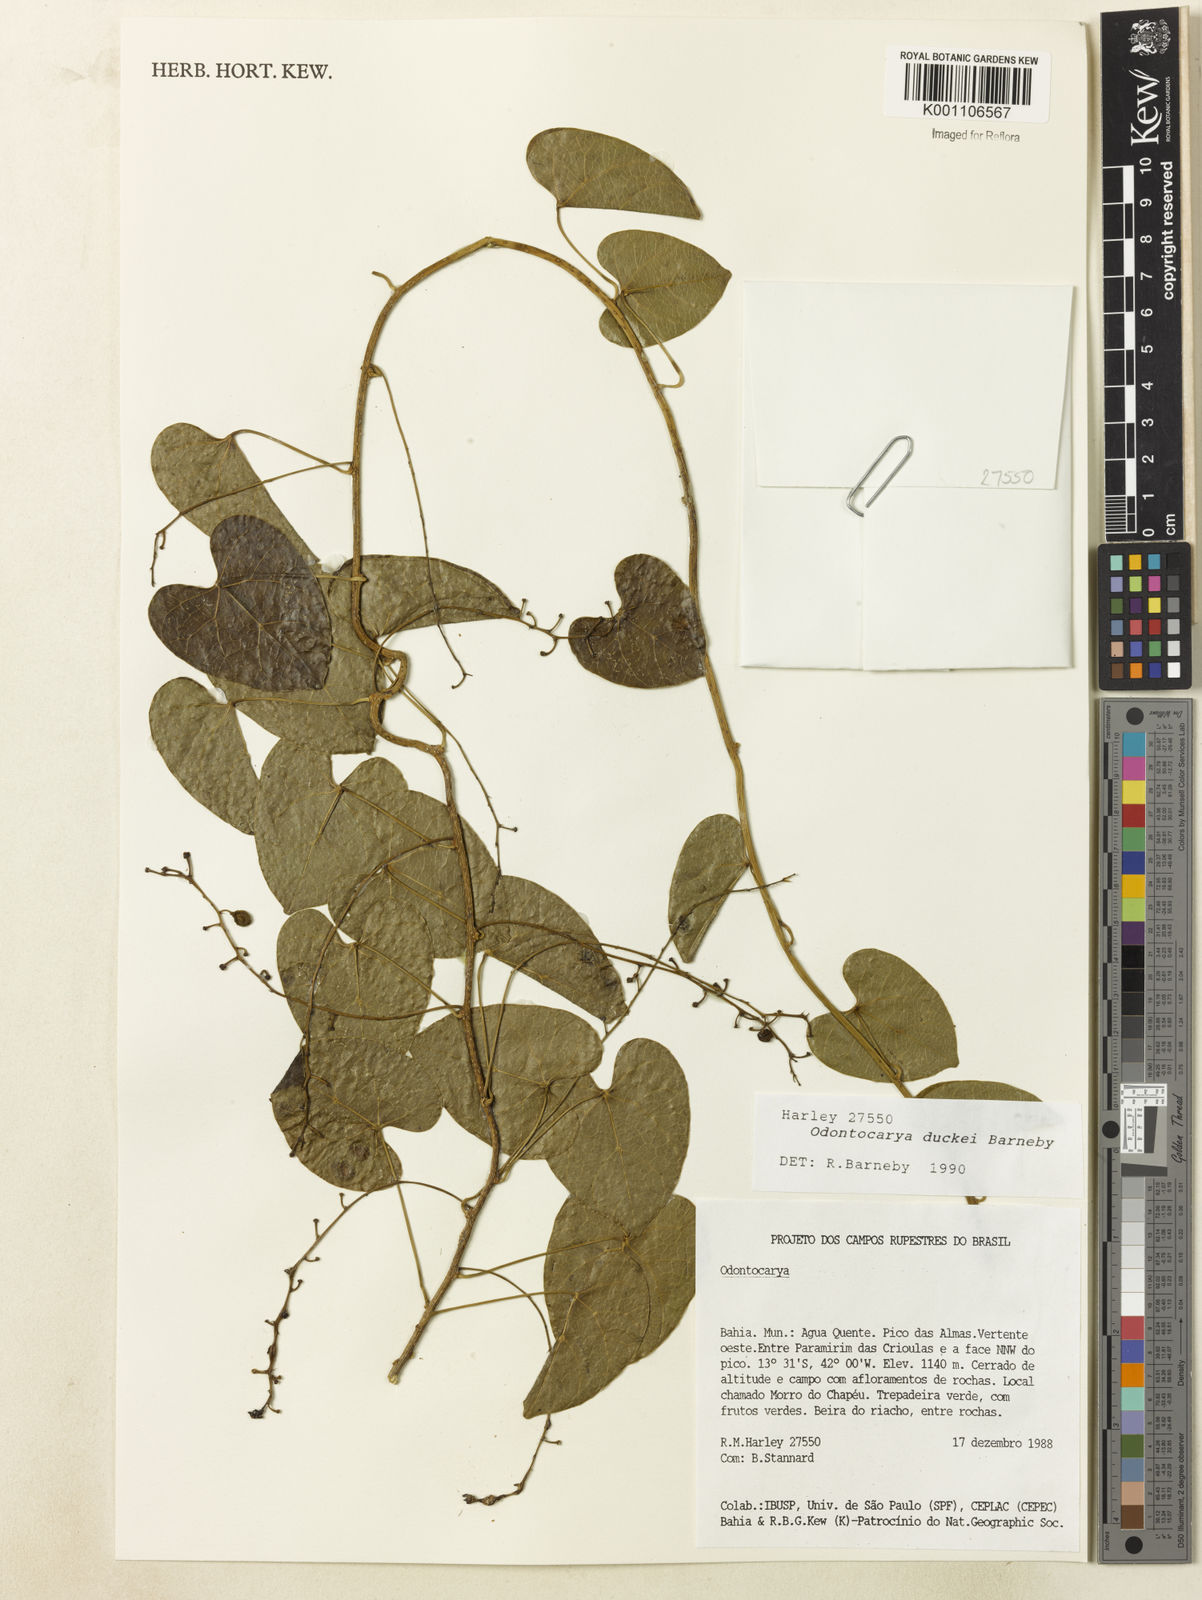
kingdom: Plantae
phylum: Tracheophyta
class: Magnoliopsida
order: Ranunculales
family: Menispermaceae
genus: Odontocarya
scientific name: Odontocarya duckei
